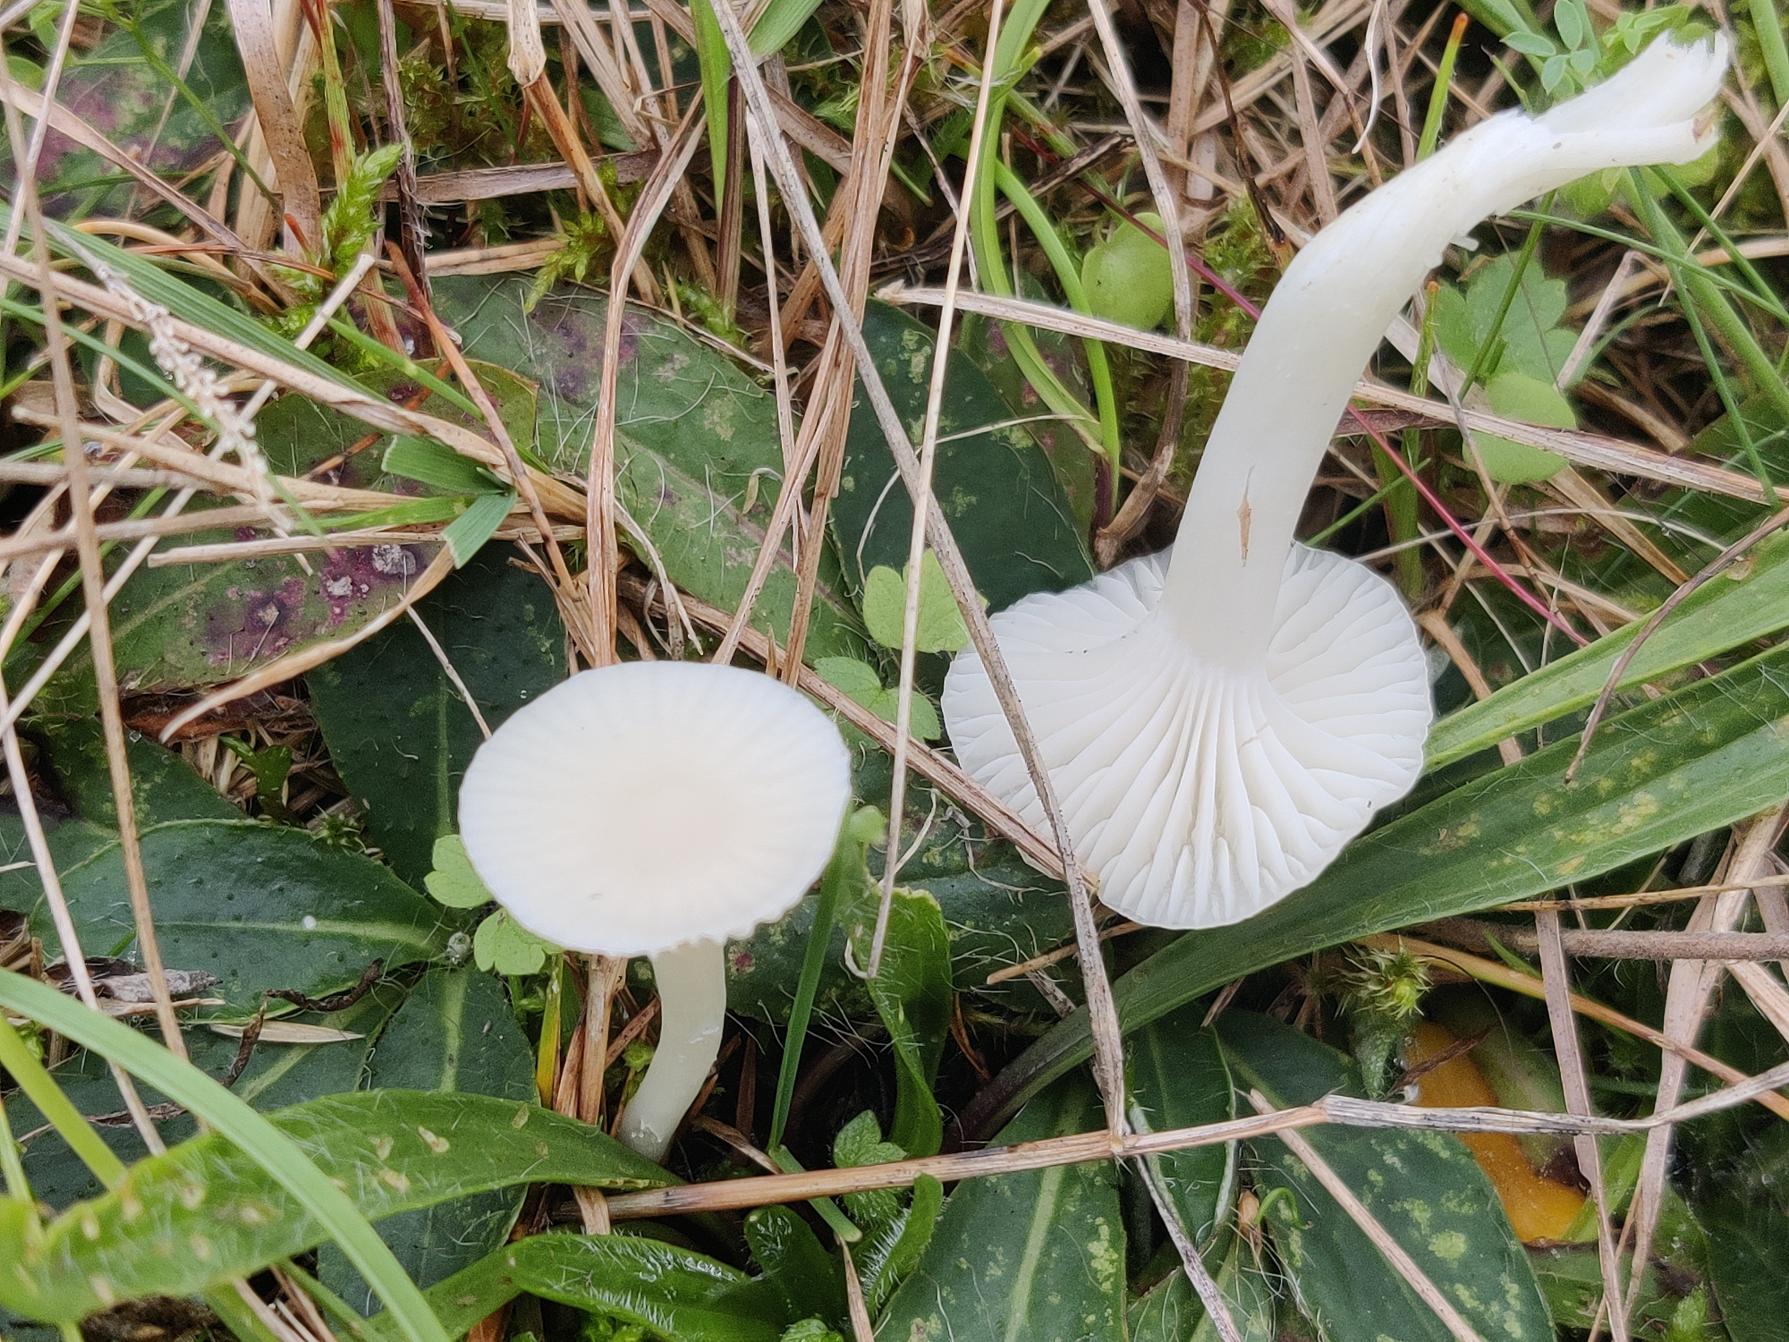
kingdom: Fungi
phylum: Basidiomycota
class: Agaricomycetes
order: Agaricales
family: Hygrophoraceae
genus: Cuphophyllus
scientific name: Cuphophyllus virgineus
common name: Snehvid vokshat
